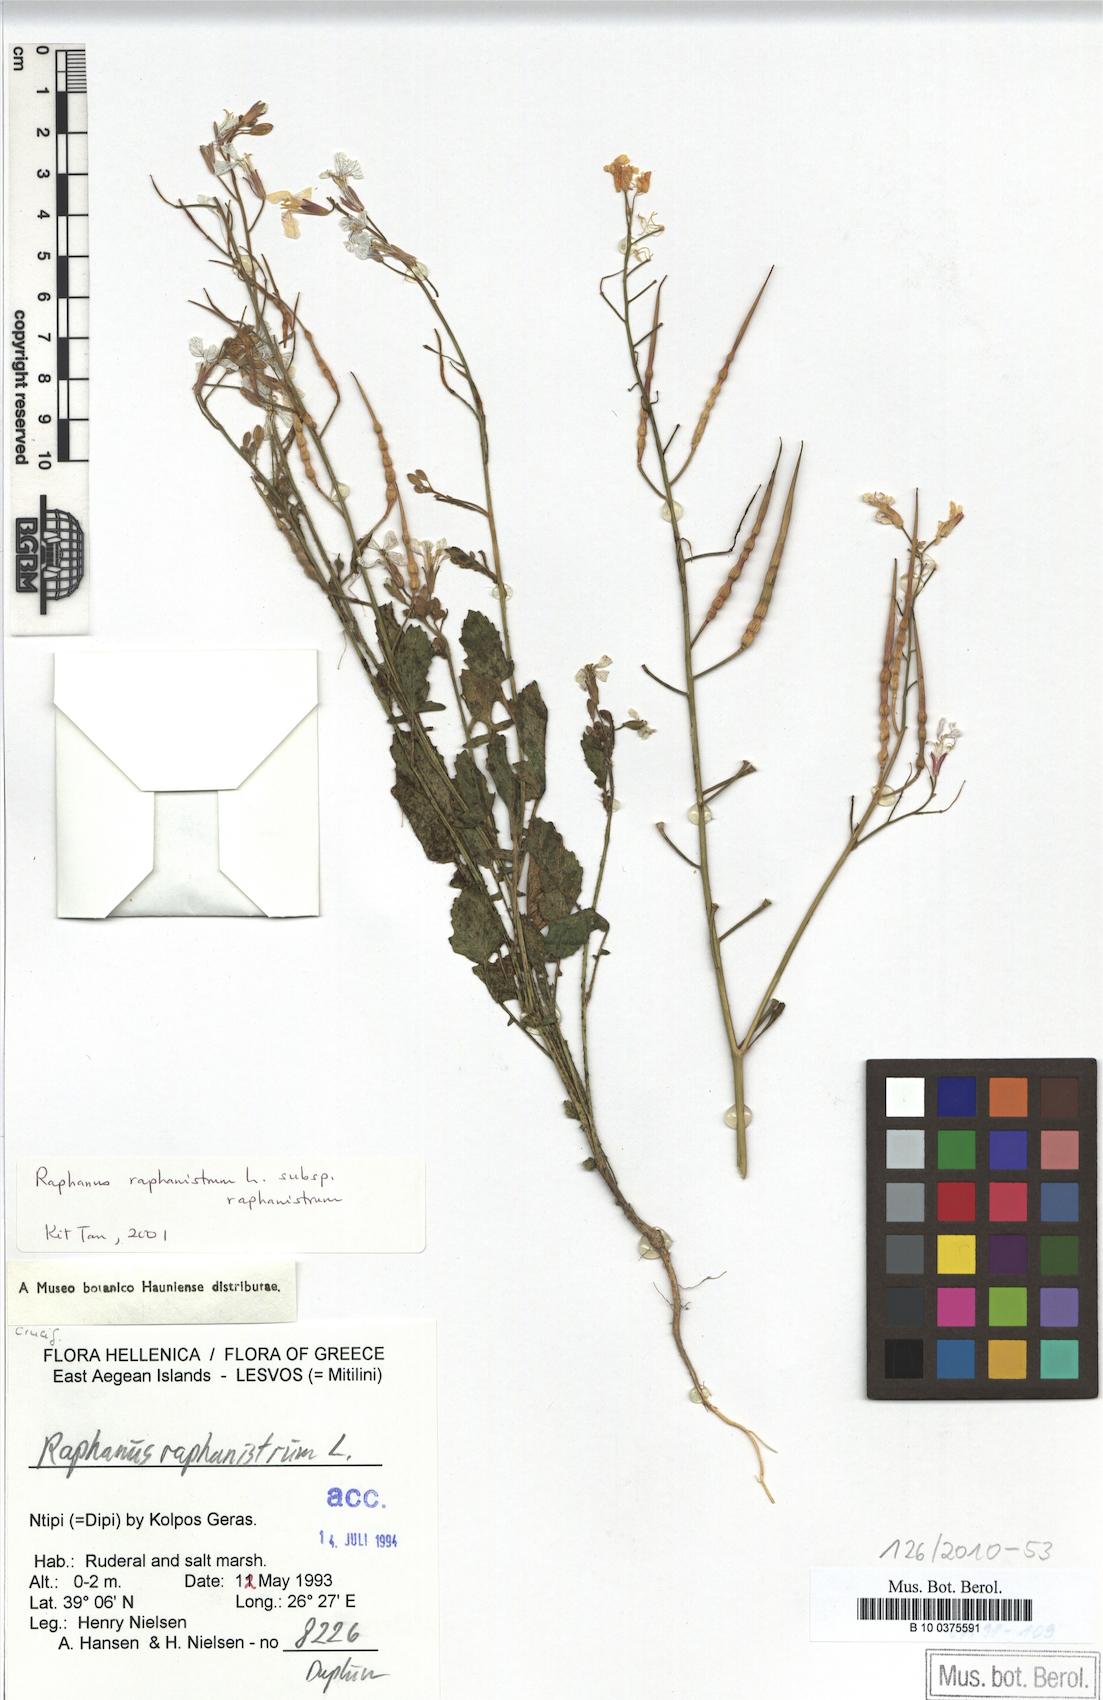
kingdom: Plantae
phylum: Tracheophyta
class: Magnoliopsida
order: Brassicales
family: Brassicaceae
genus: Raphanus
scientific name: Raphanus raphanistrum
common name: Wild radish
